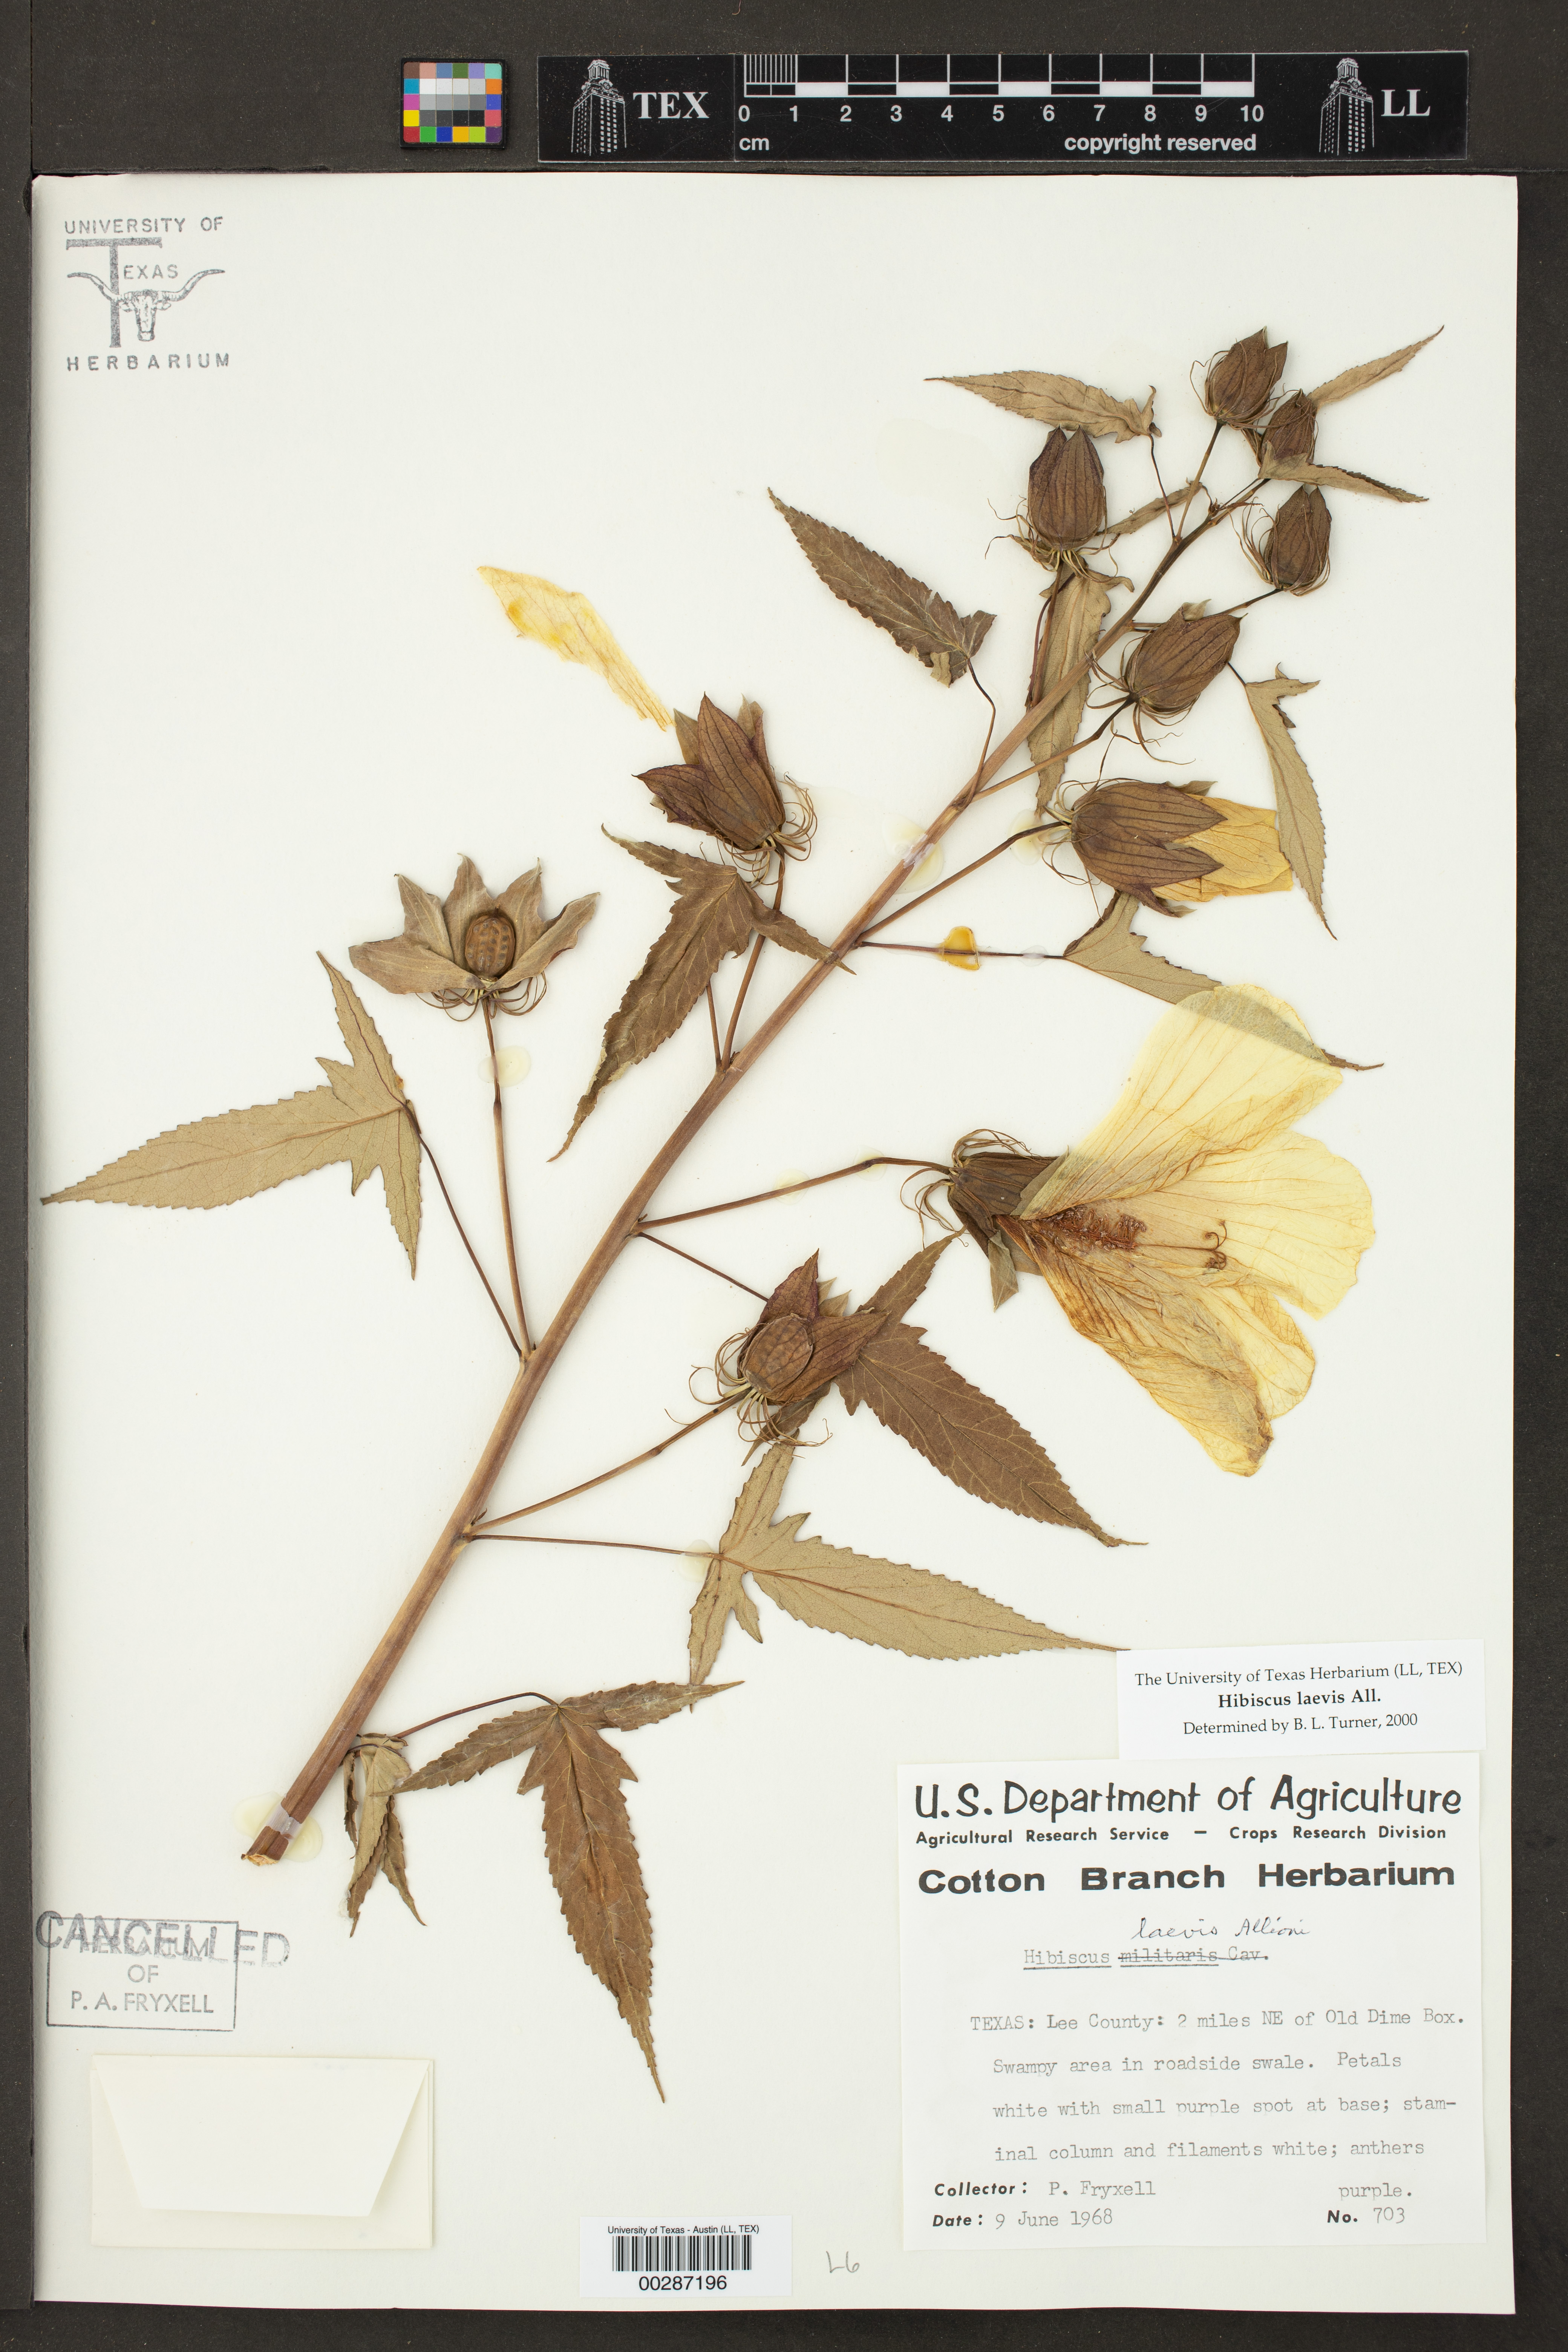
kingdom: Plantae
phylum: Tracheophyta
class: Magnoliopsida
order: Malvales
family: Malvaceae
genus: Hibiscus
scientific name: Hibiscus laevis
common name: Scarlet rose-mallow
